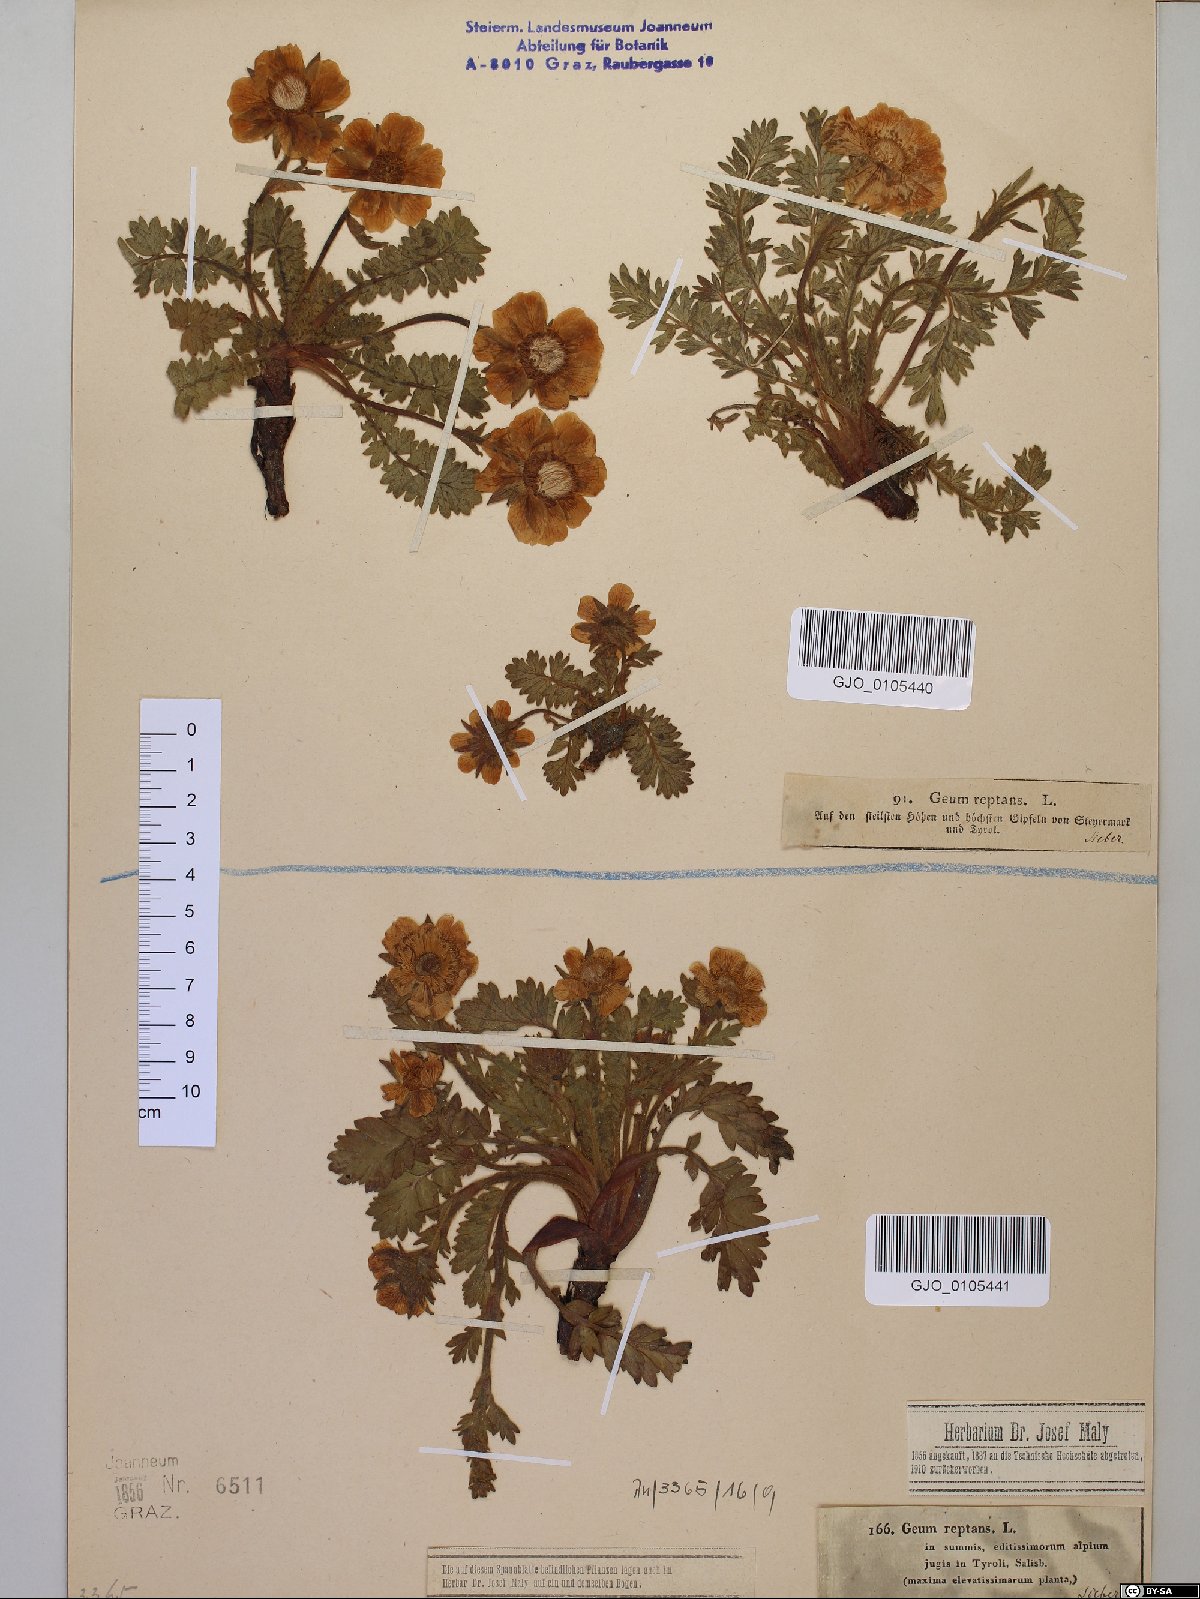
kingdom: Plantae
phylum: Tracheophyta
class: Magnoliopsida
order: Rosales
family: Rosaceae
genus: Geum
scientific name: Geum reptans
